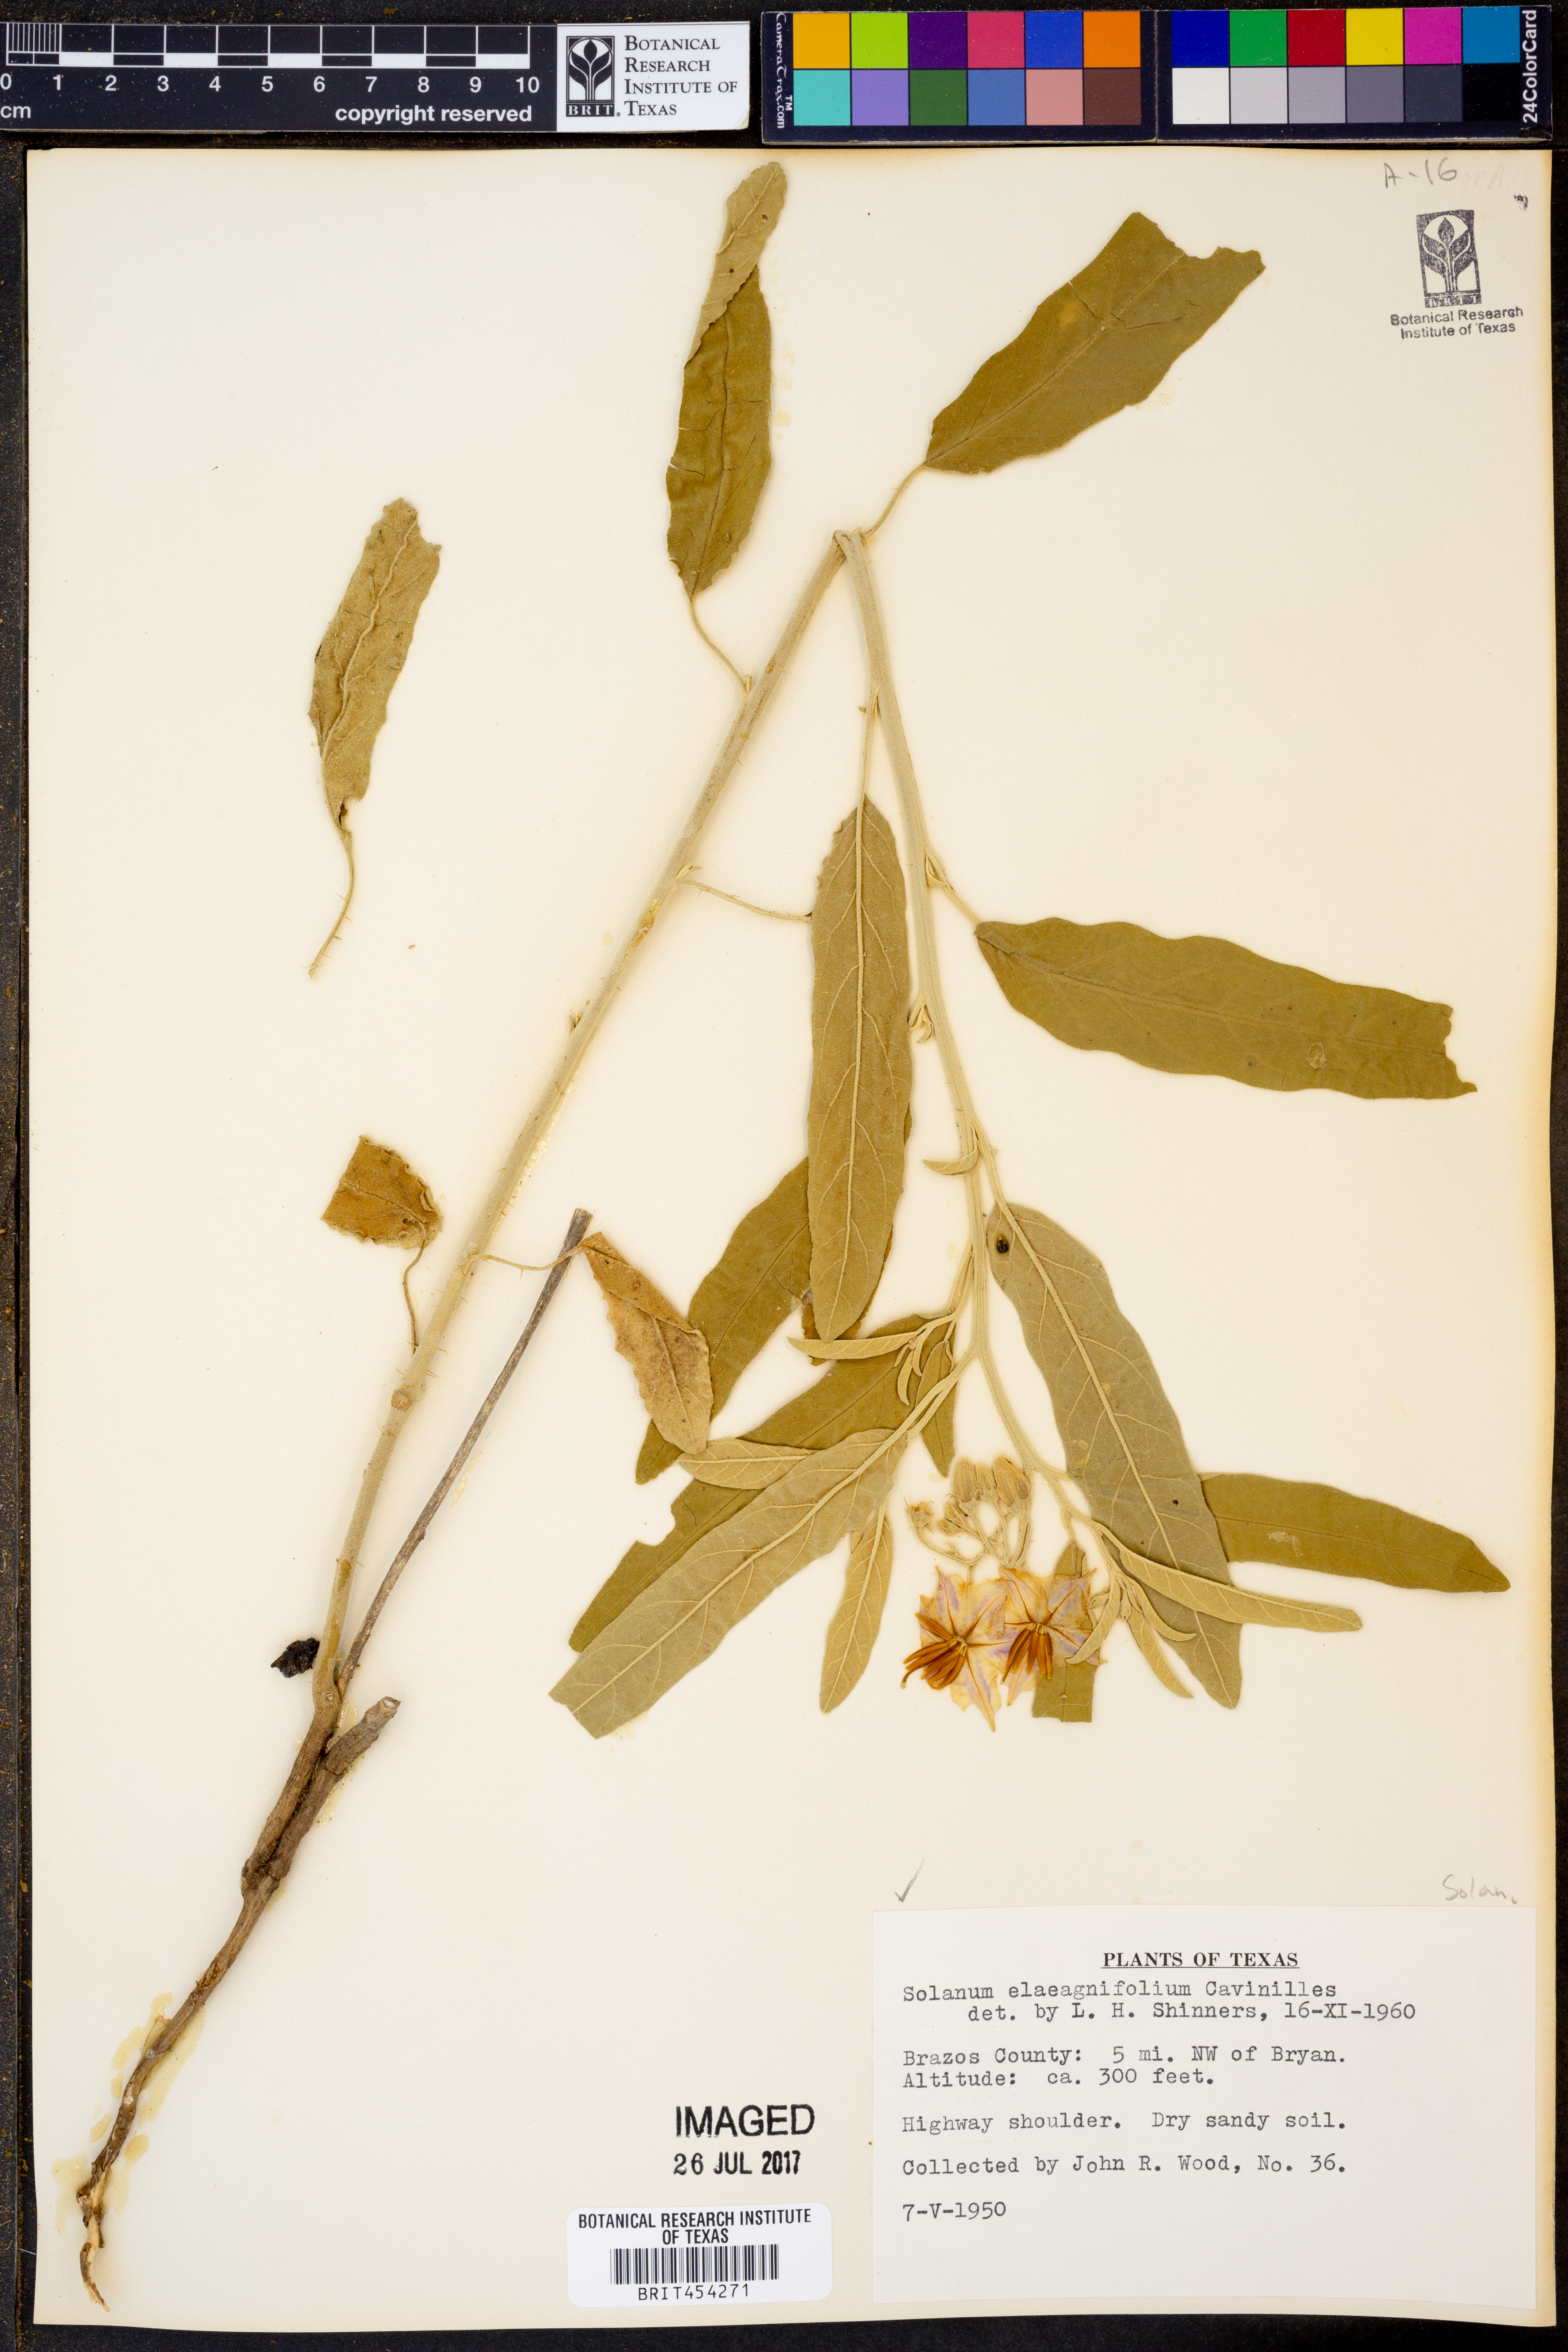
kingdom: Plantae
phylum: Tracheophyta
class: Magnoliopsida
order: Solanales
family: Solanaceae
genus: Solanum
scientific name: Solanum elaeagnifolium
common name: Silverleaf nightshade
